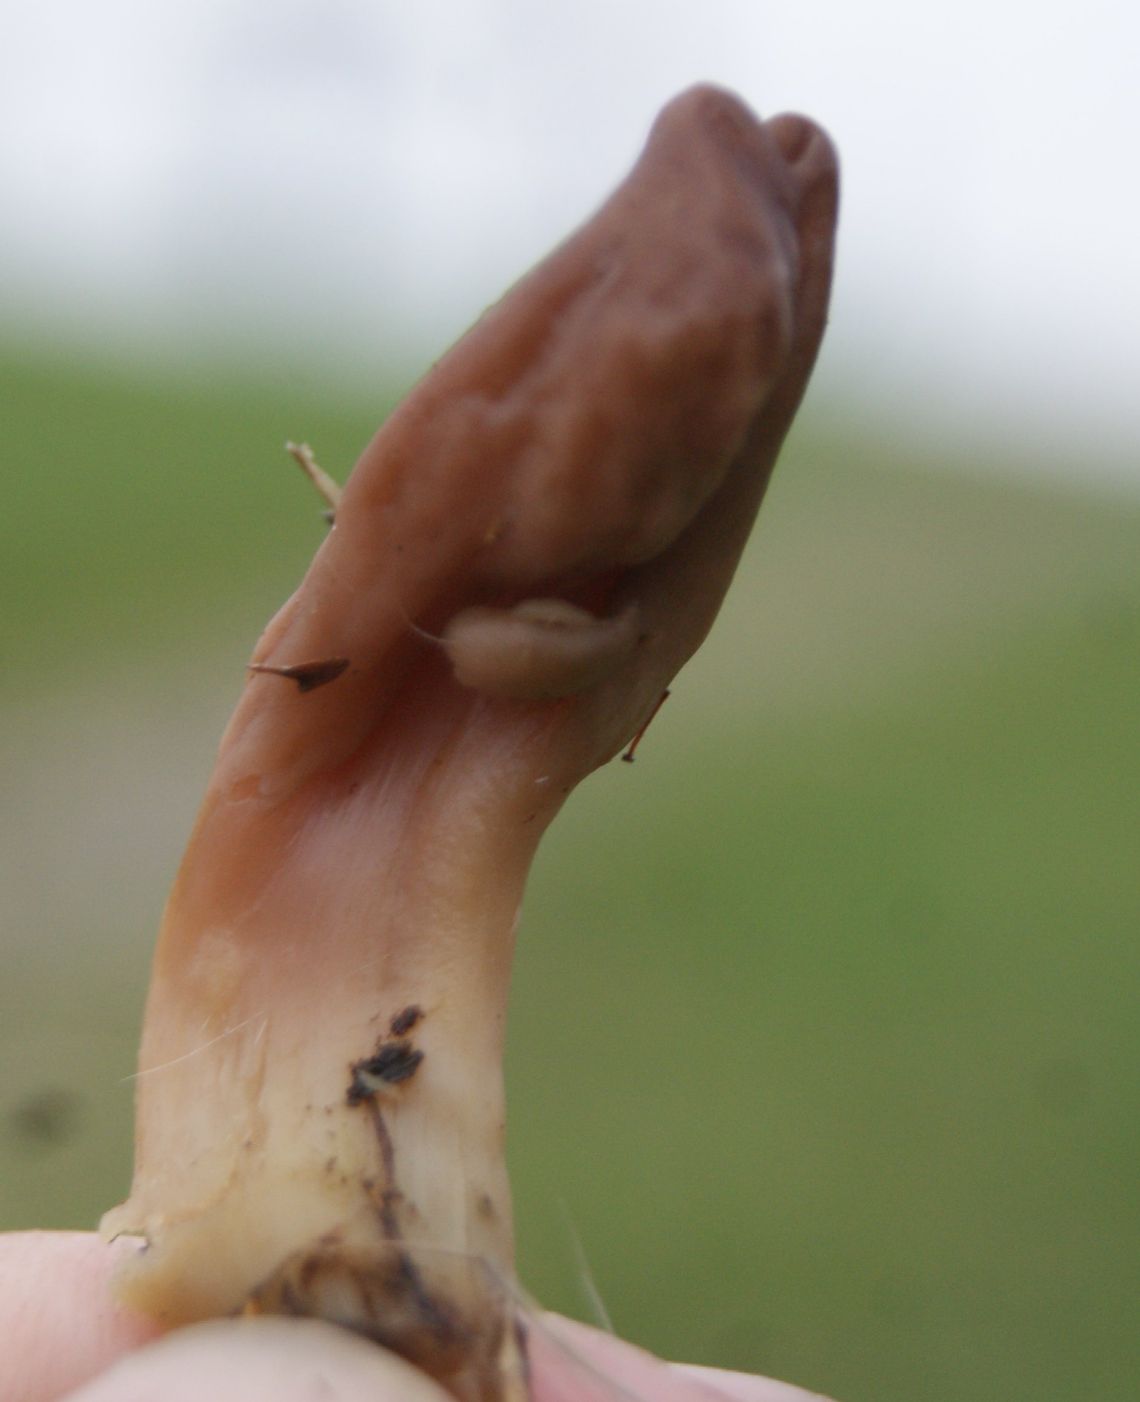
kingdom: Fungi
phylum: Ascomycota
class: Leotiomycetes
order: Leotiales
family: Leotiaceae
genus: Microglossum
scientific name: Microglossum olivaceum
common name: olivenbrun farvetunge
